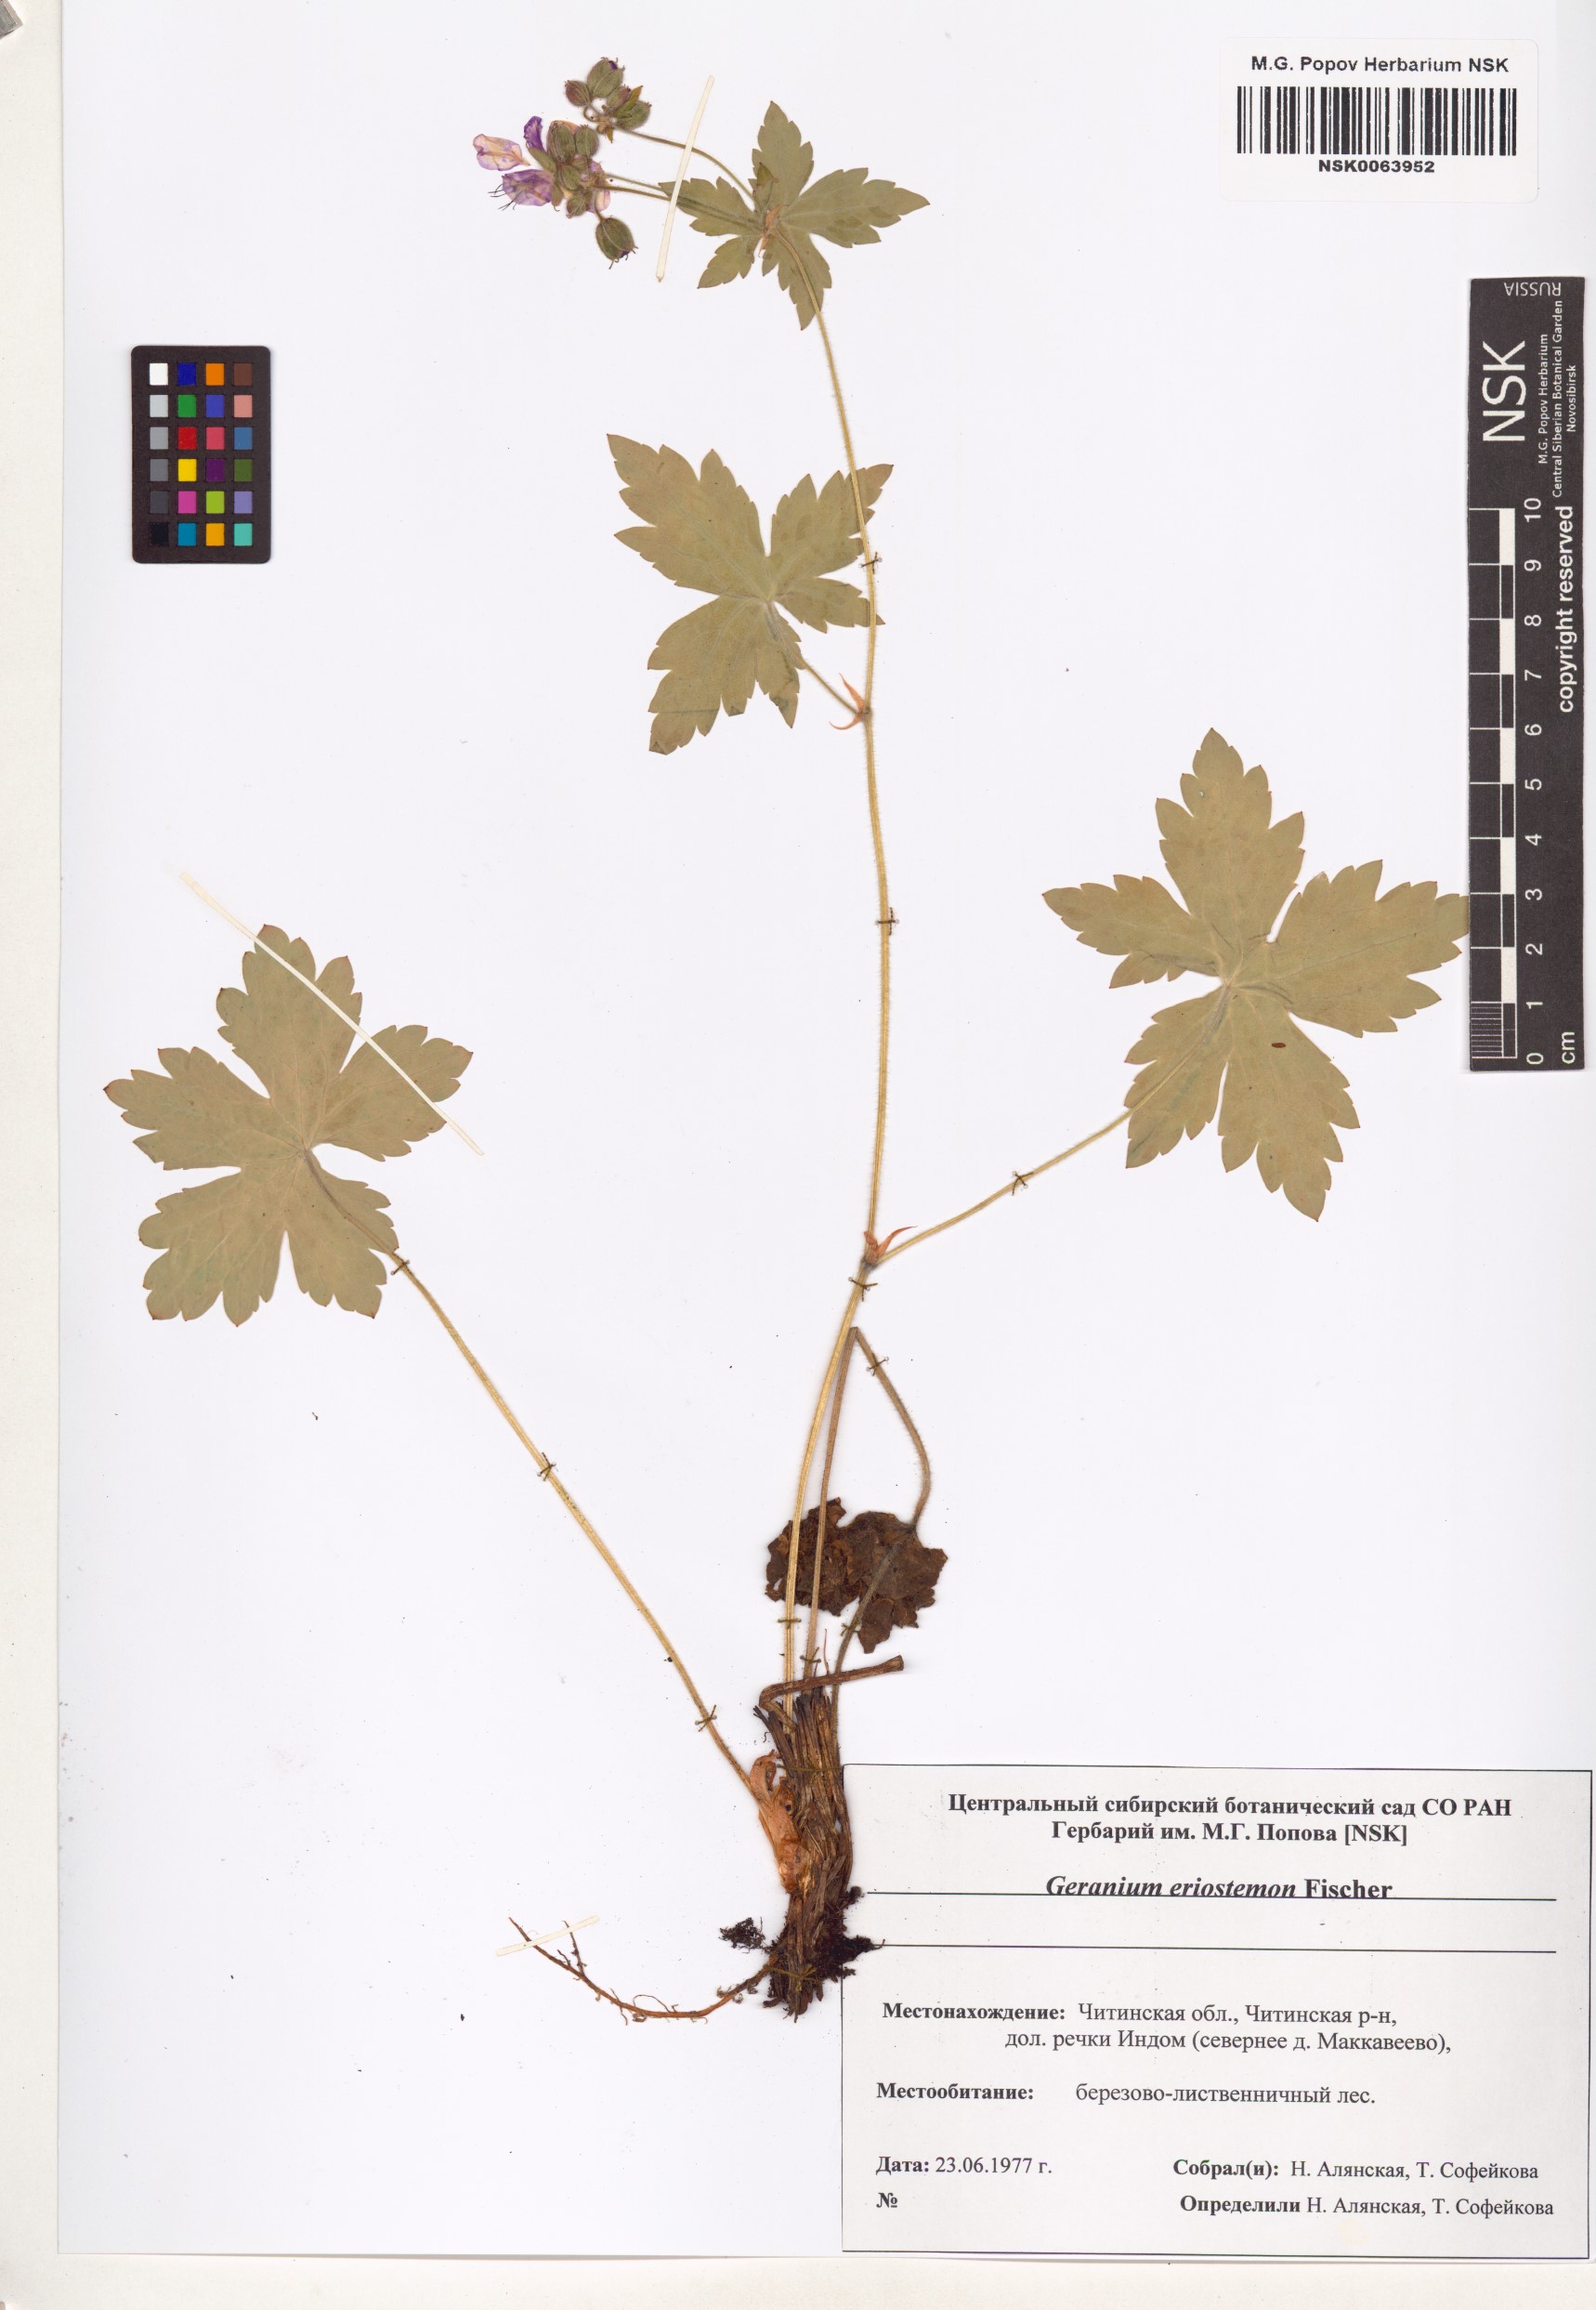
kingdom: Plantae
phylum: Tracheophyta
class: Magnoliopsida
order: Geraniales
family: Geraniaceae
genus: Geranium
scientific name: Geranium platyanthum
